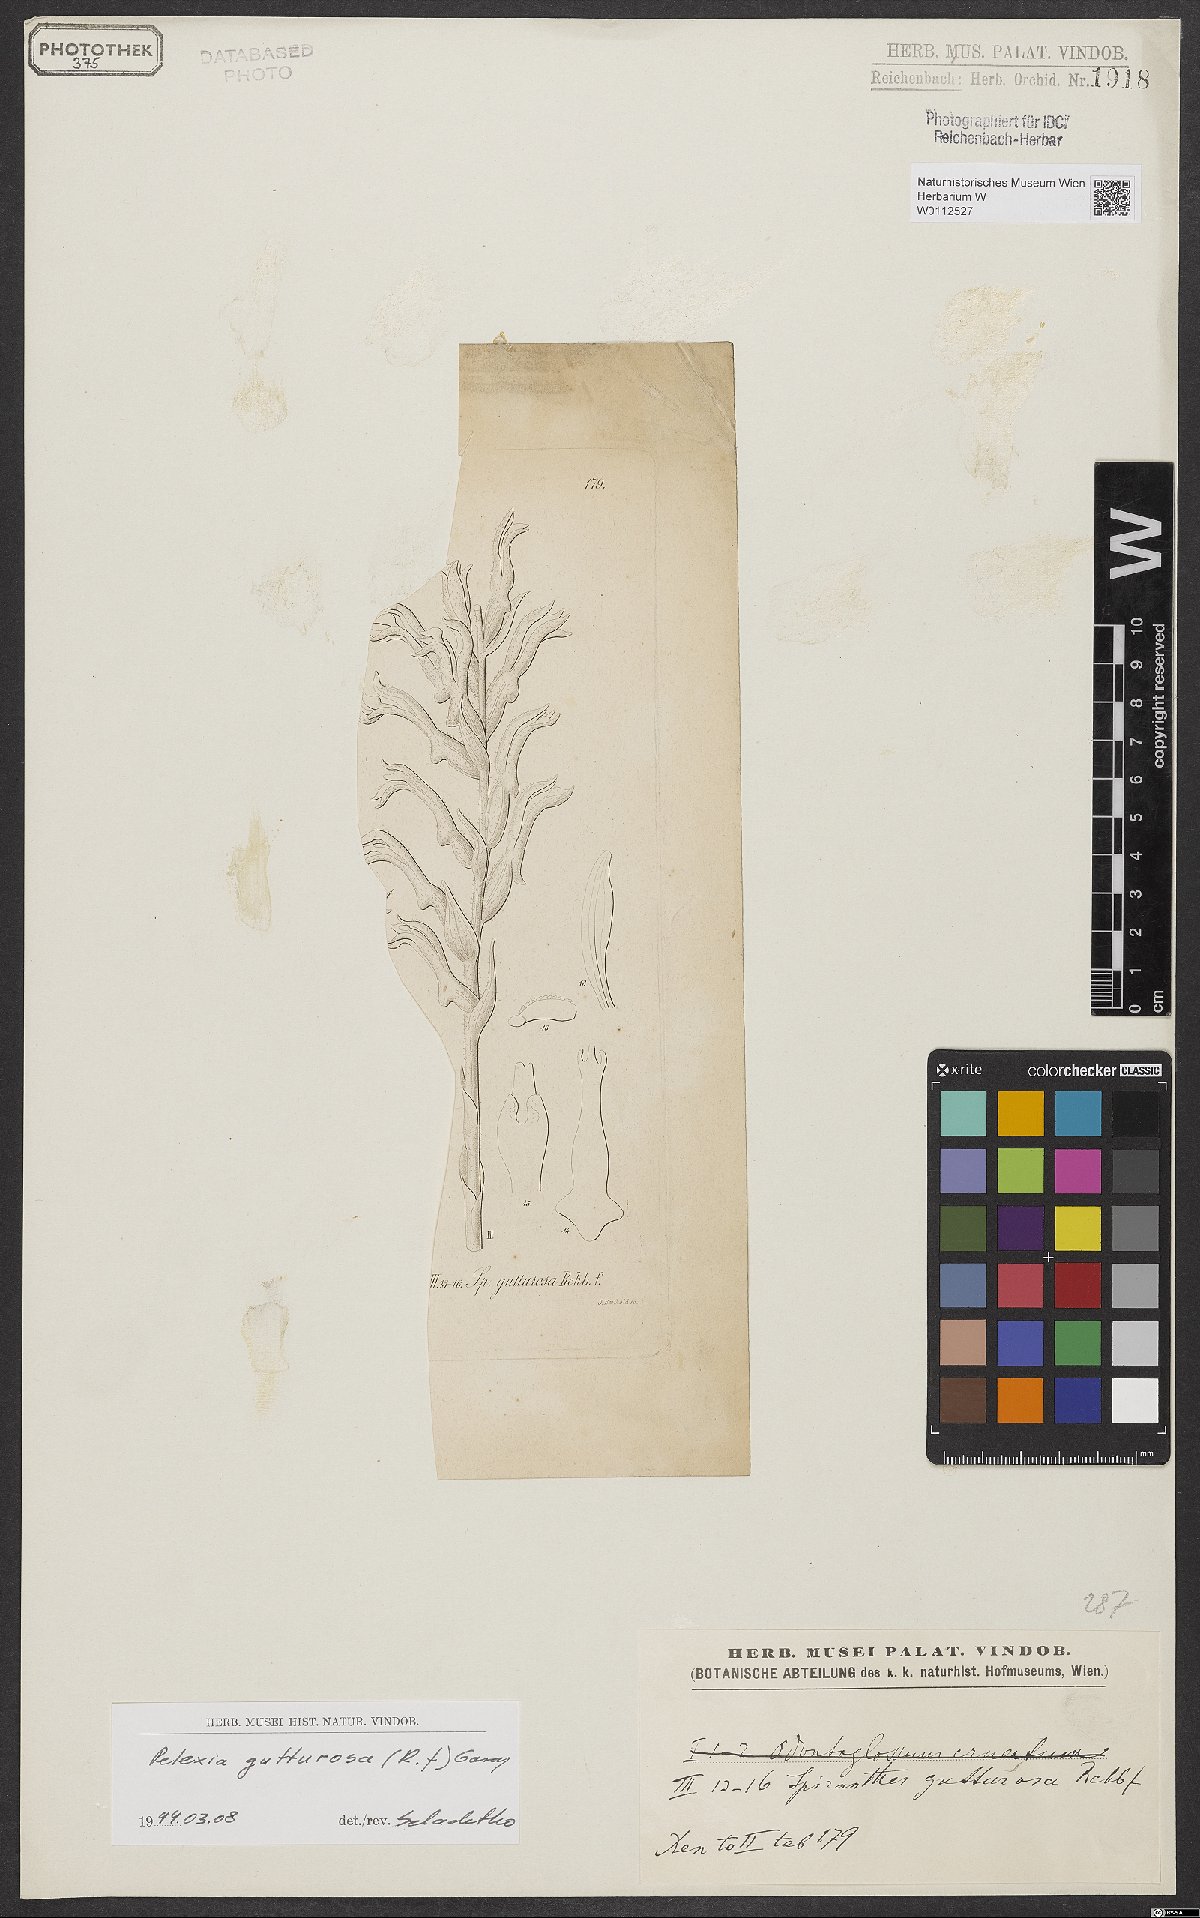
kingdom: Plantae
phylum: Tracheophyta
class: Liliopsida
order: Asparagales
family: Orchidaceae
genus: Pelexia
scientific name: Pelexia gutturosa
